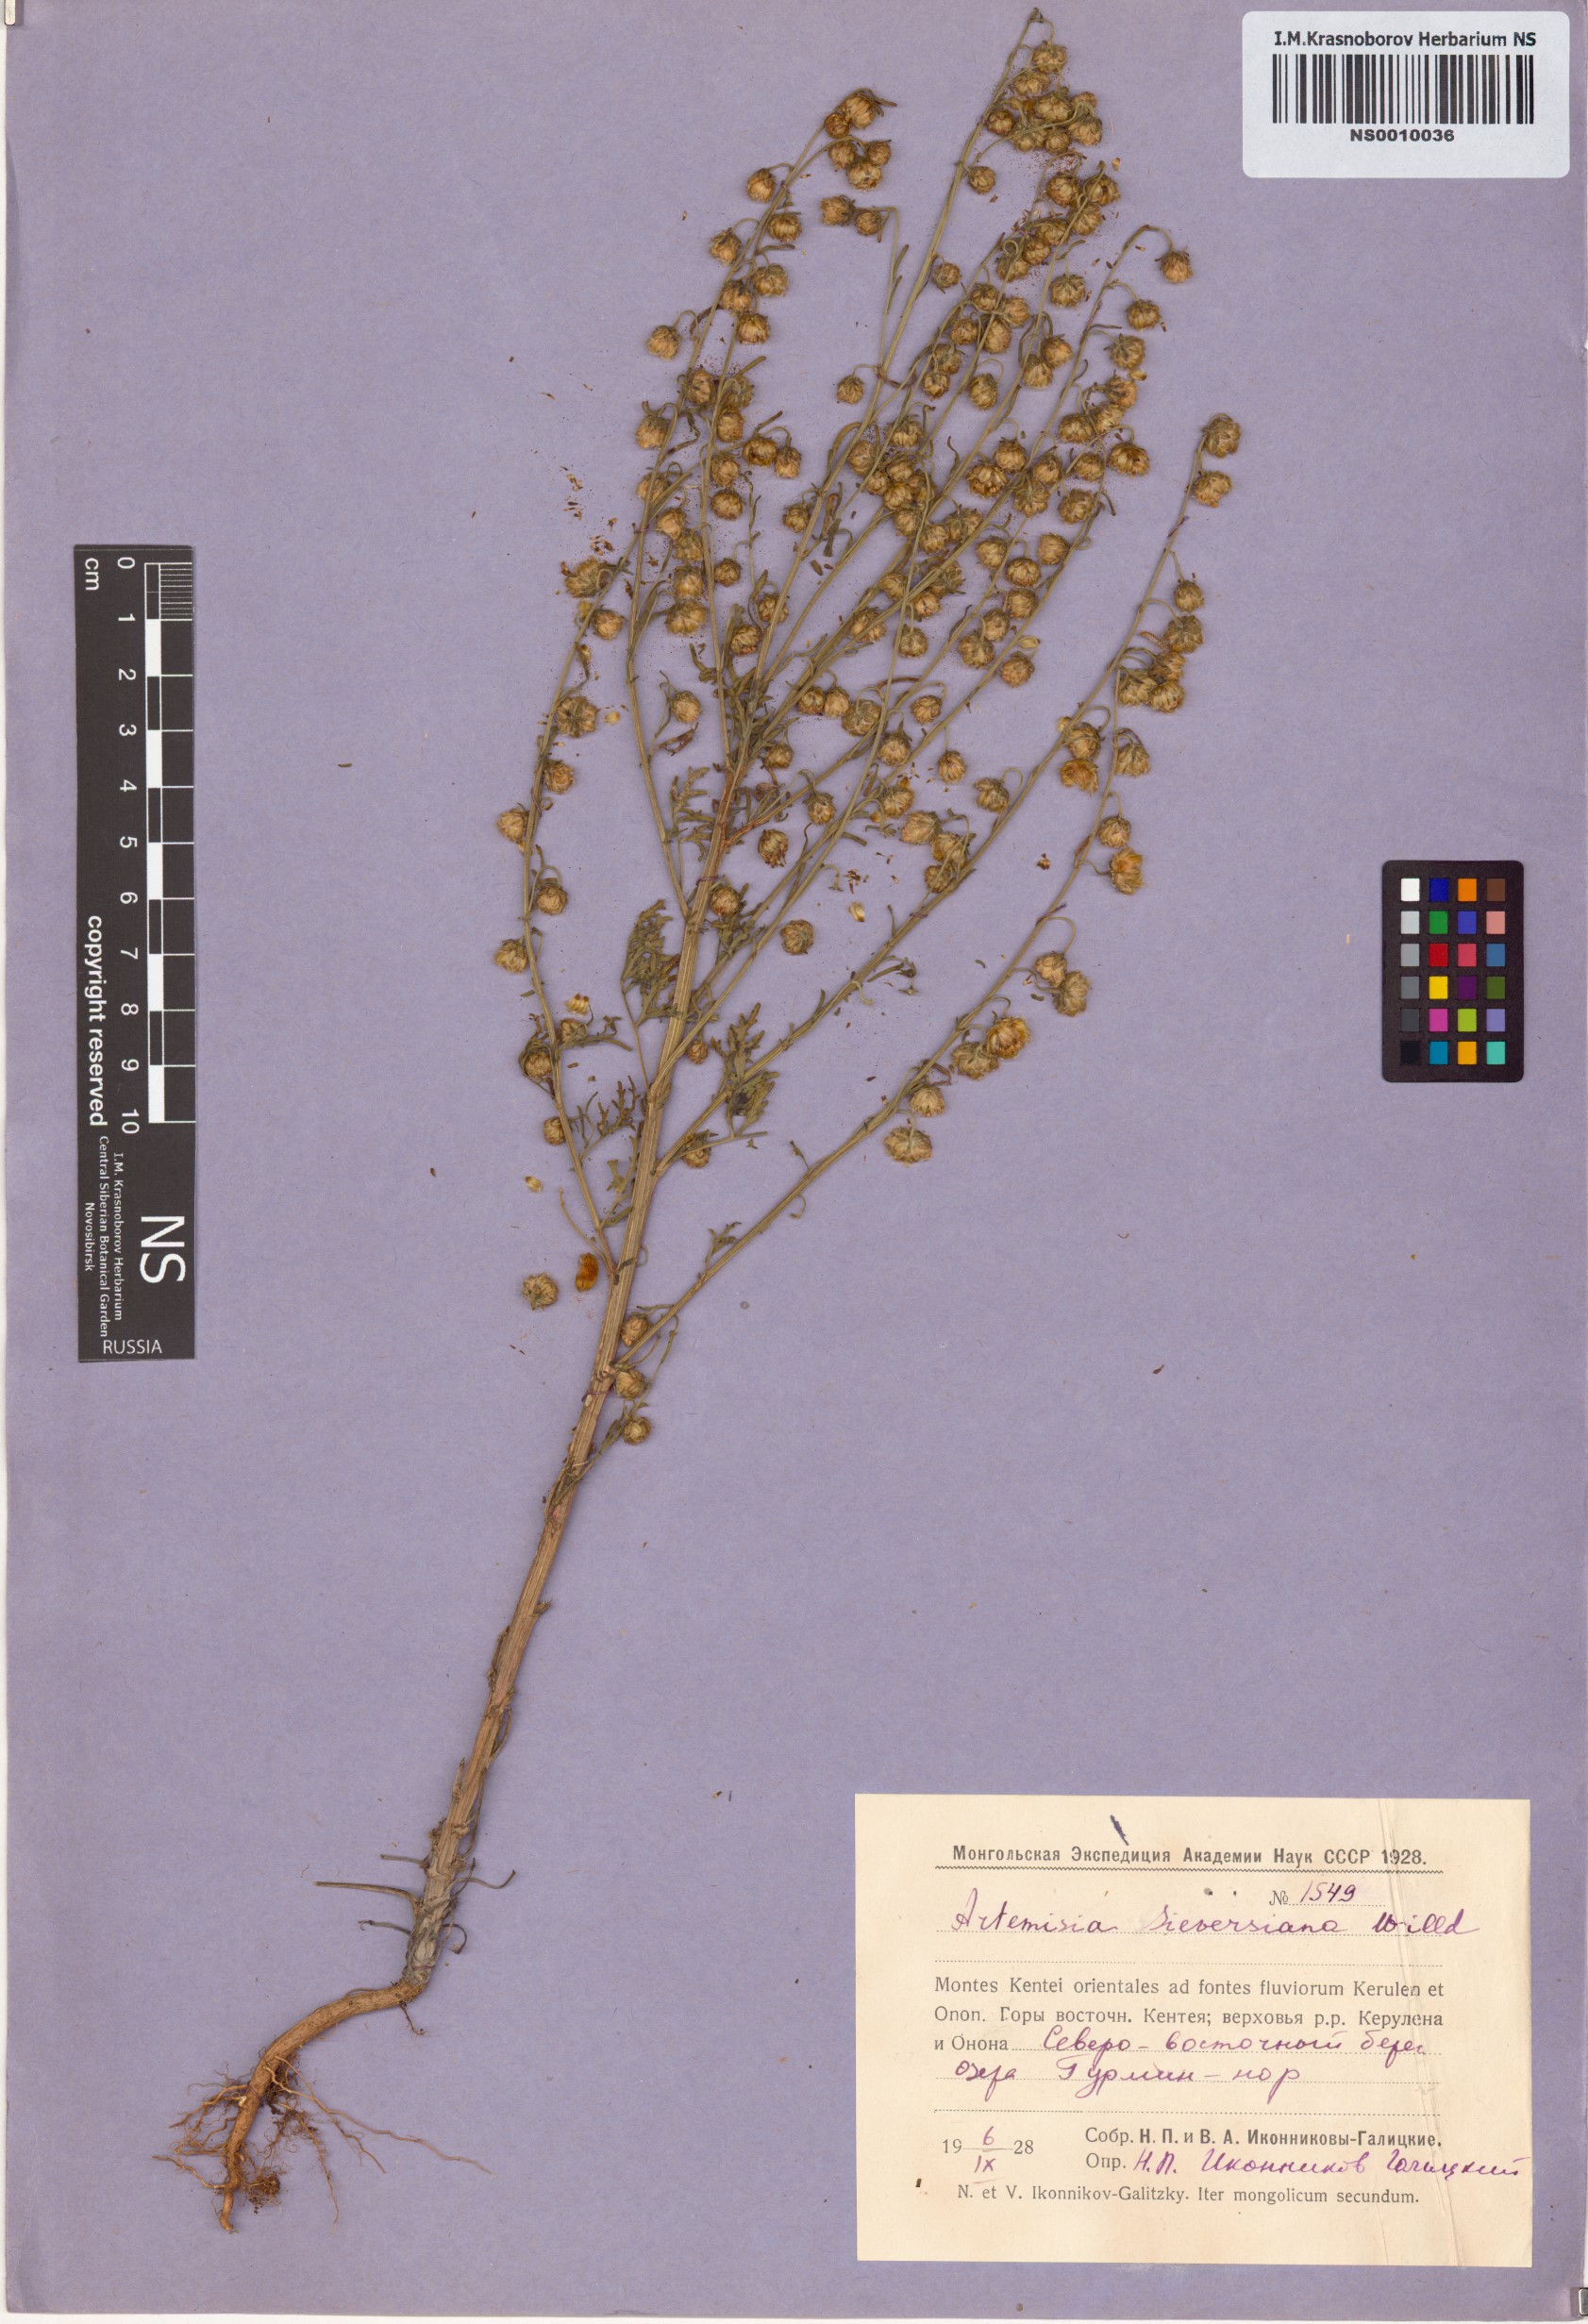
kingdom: Plantae
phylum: Tracheophyta
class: Magnoliopsida
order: Asterales
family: Asteraceae
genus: Artemisia
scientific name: Artemisia sieversiana
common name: Sieversian wormwood
